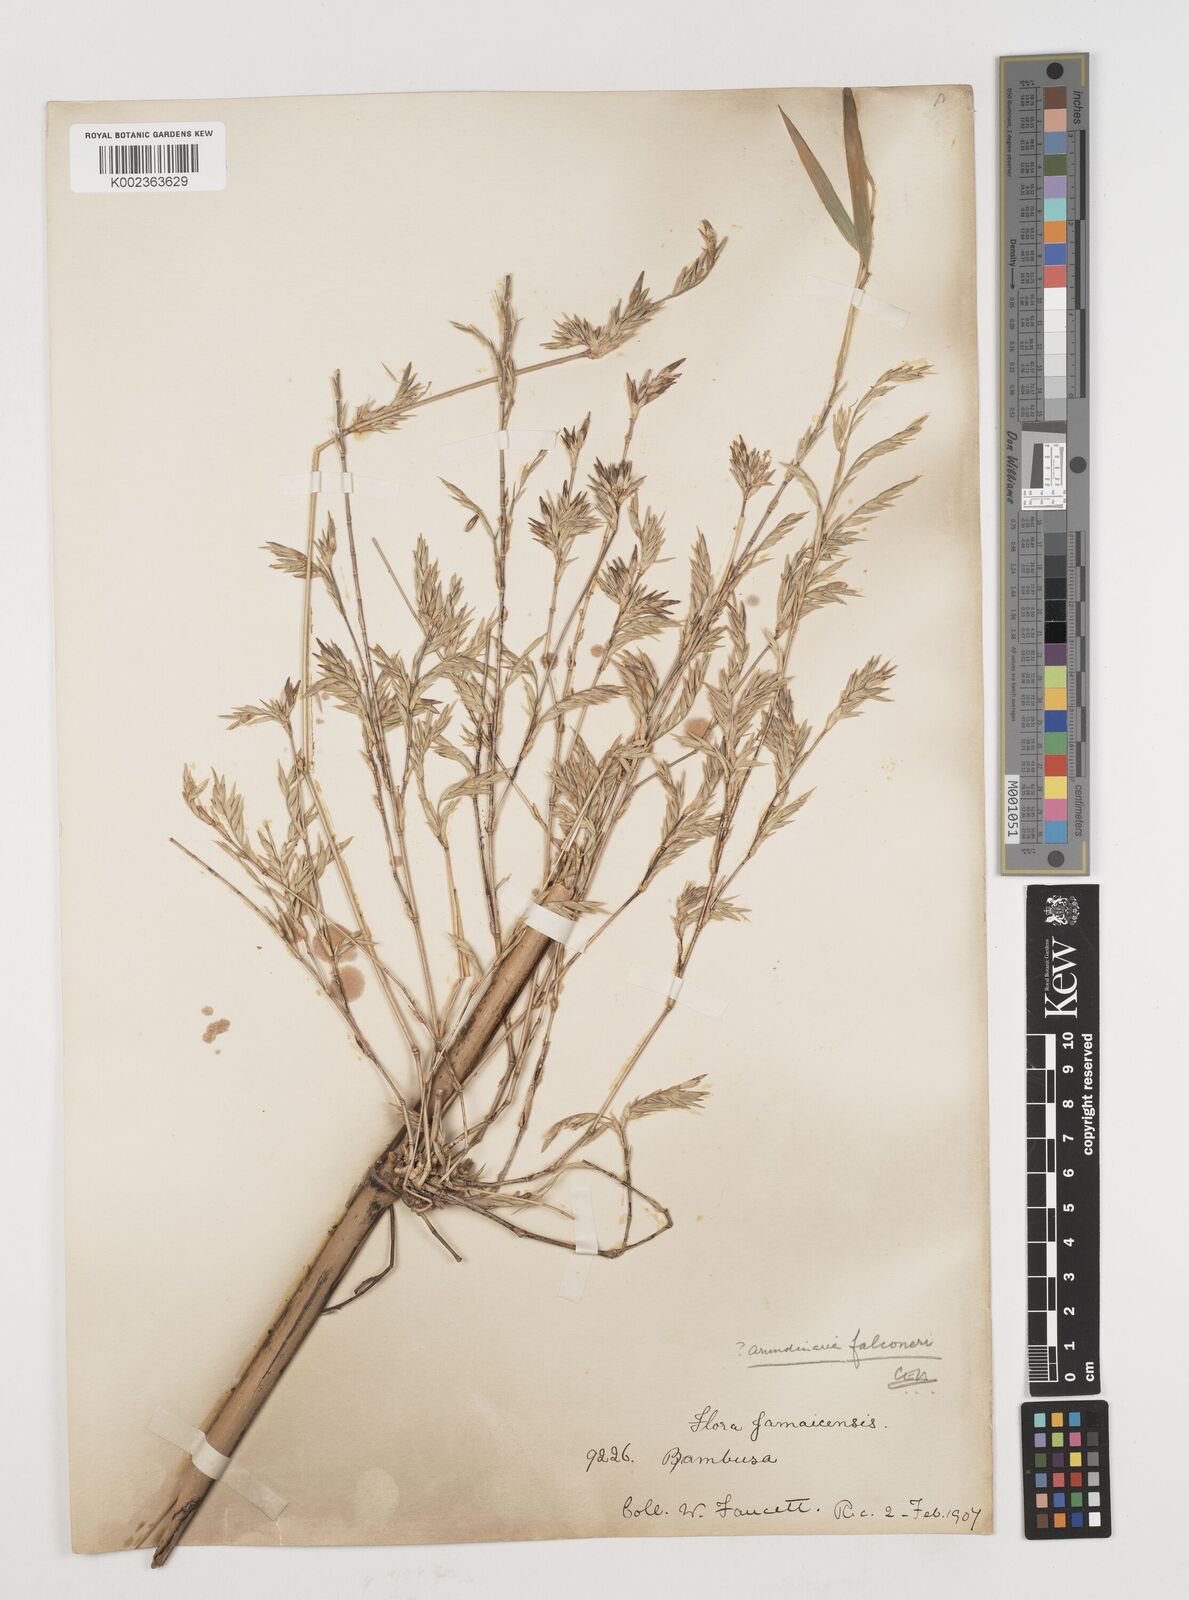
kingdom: Plantae
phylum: Tracheophyta
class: Liliopsida
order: Poales
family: Poaceae
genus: Himalayacalamus
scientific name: Himalayacalamus falconeri
